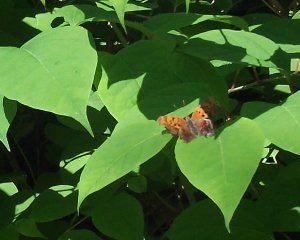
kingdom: Animalia
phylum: Arthropoda
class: Insecta
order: Lepidoptera
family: Nymphalidae
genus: Polygonia
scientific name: Polygonia interrogationis
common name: Question Mark
